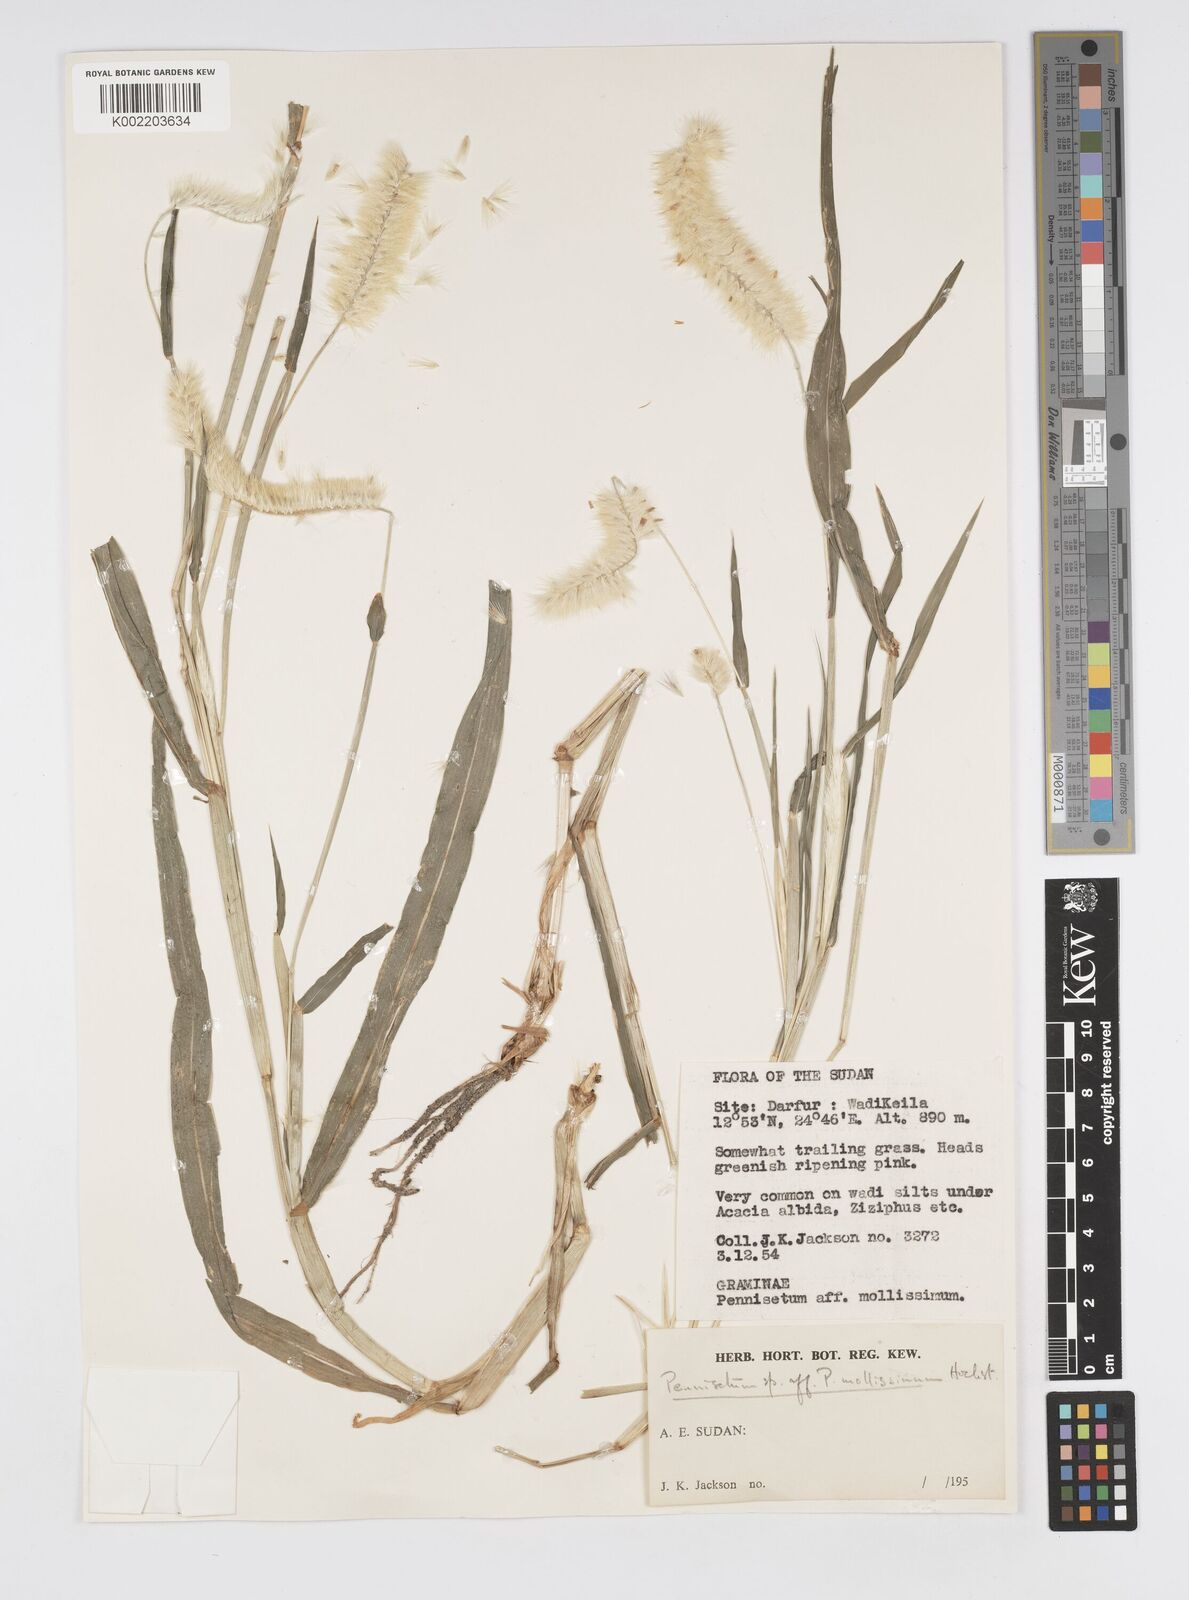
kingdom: Plantae
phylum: Tracheophyta
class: Liliopsida
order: Poales
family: Poaceae
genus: Cenchrus
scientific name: Cenchrus violaceus
